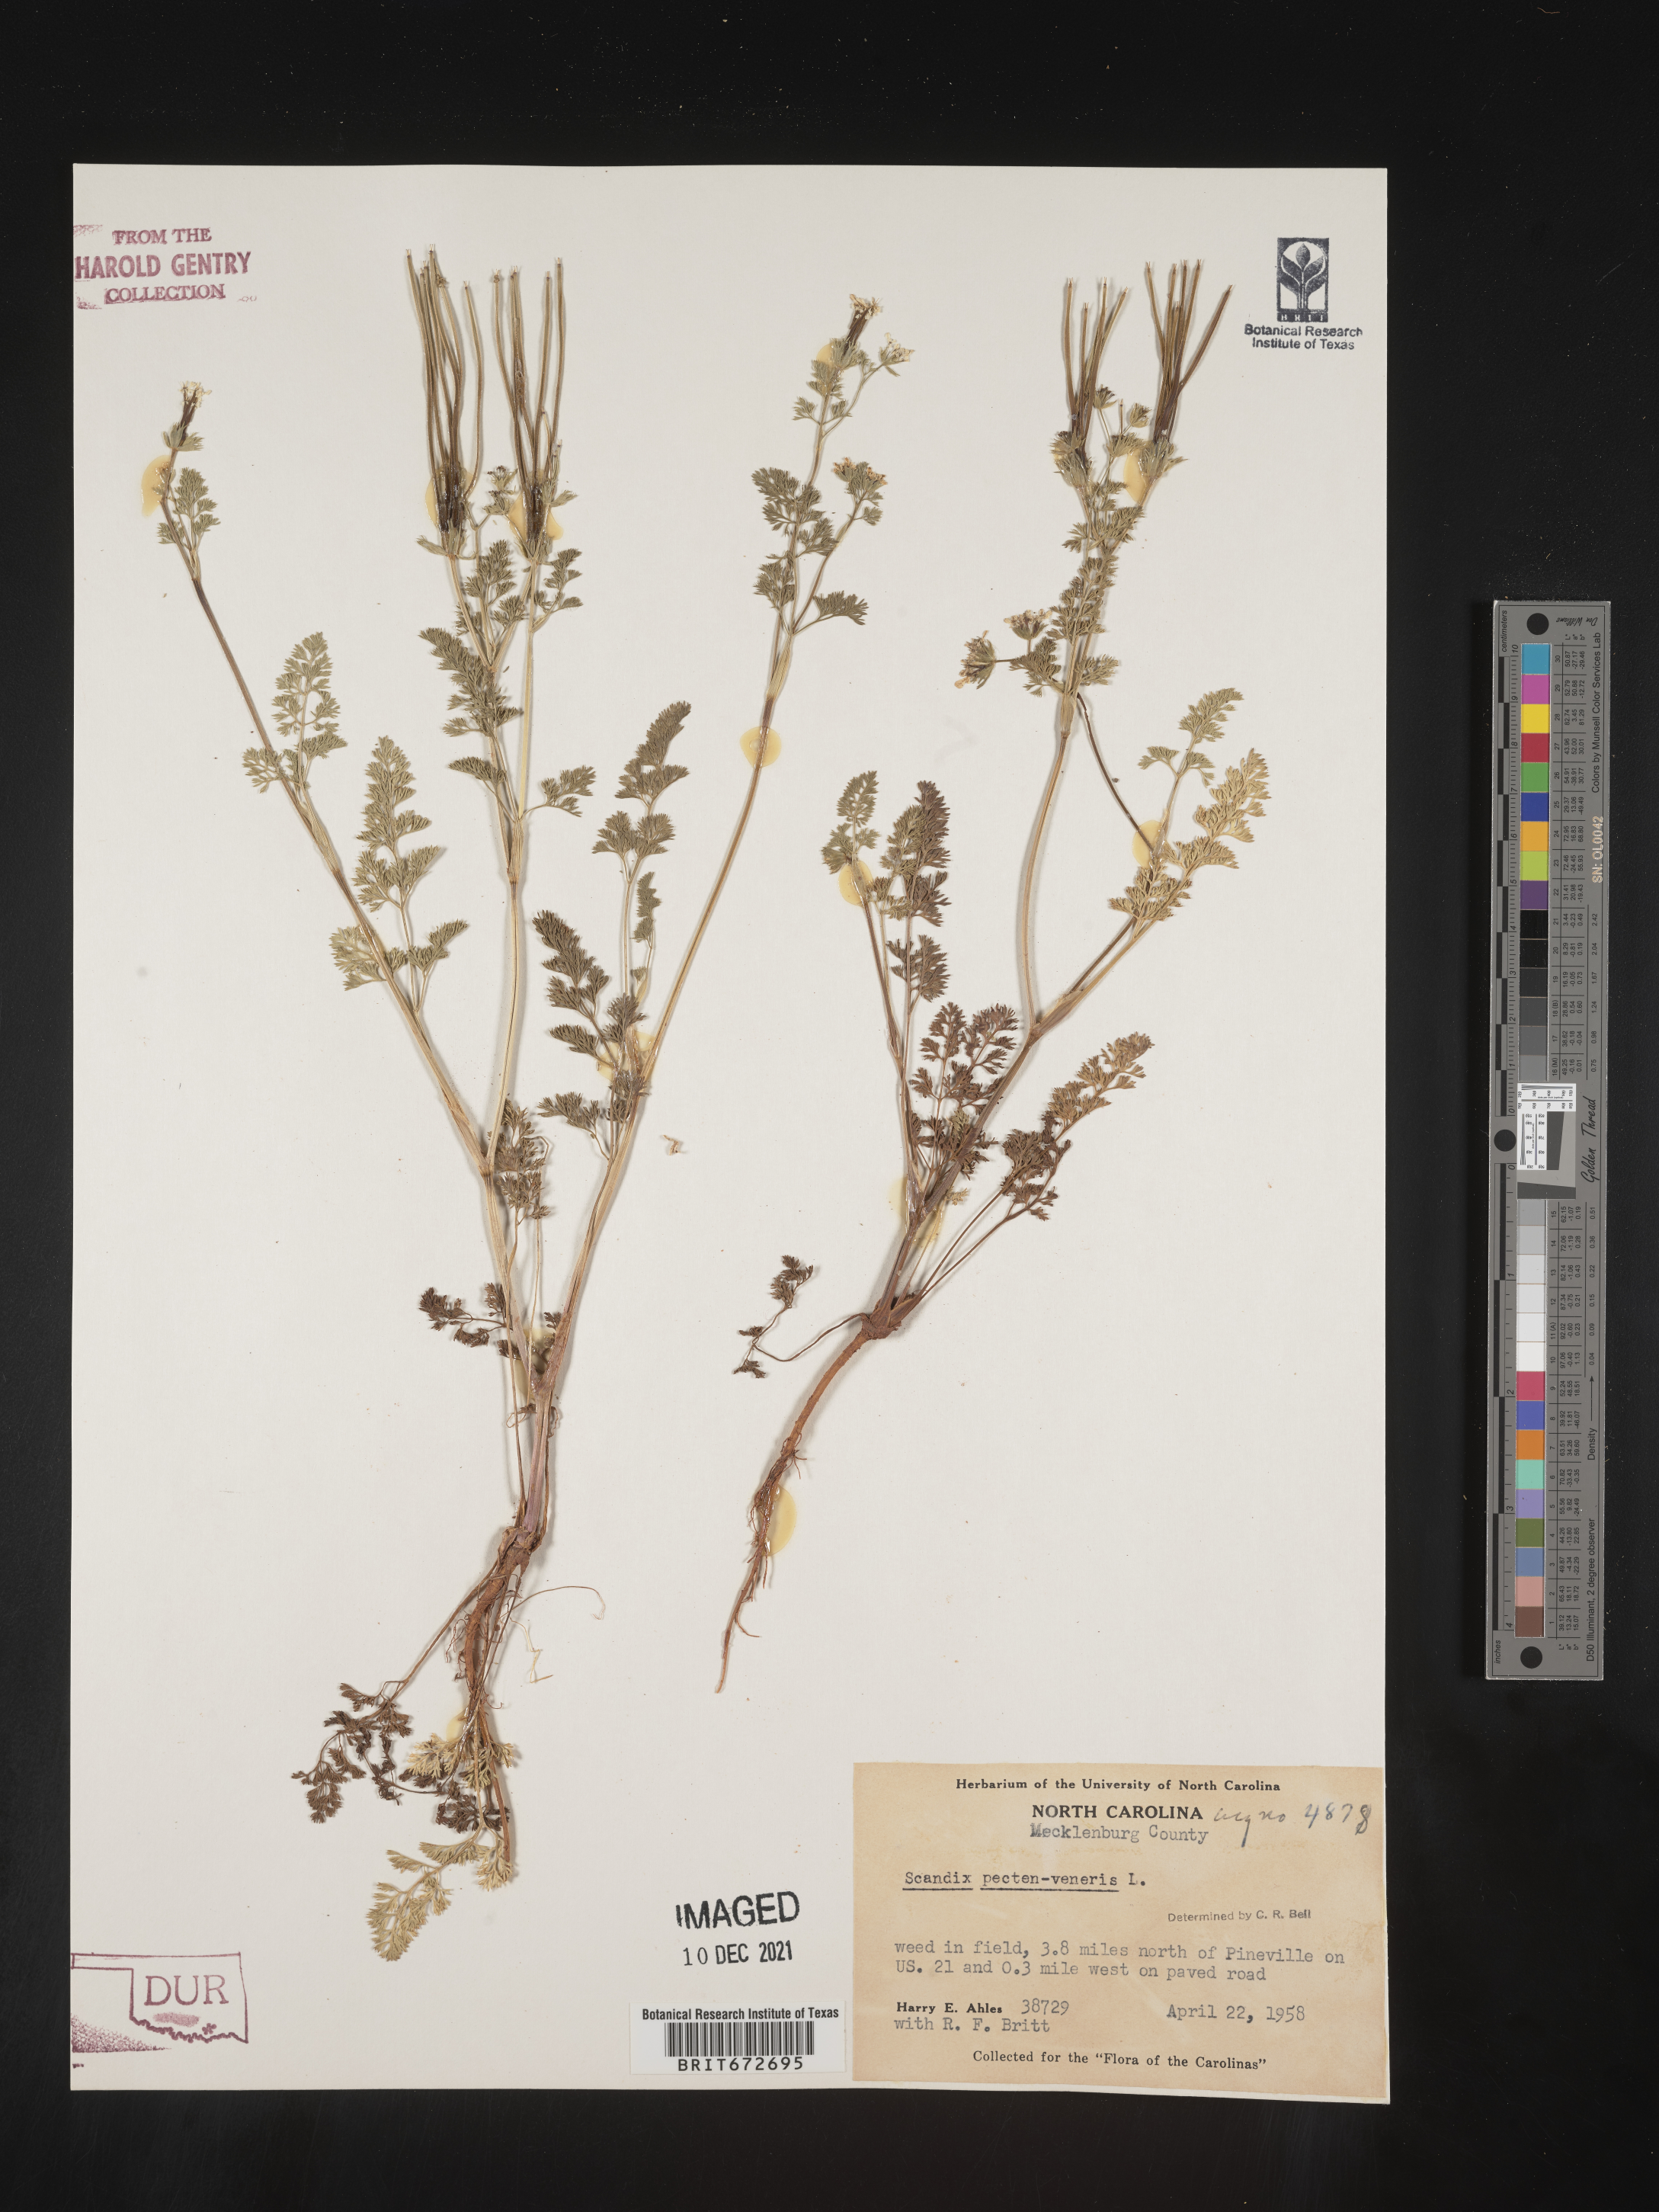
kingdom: Plantae
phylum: Tracheophyta
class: Magnoliopsida
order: Apiales
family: Apiaceae
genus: Scandix
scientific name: Scandix
